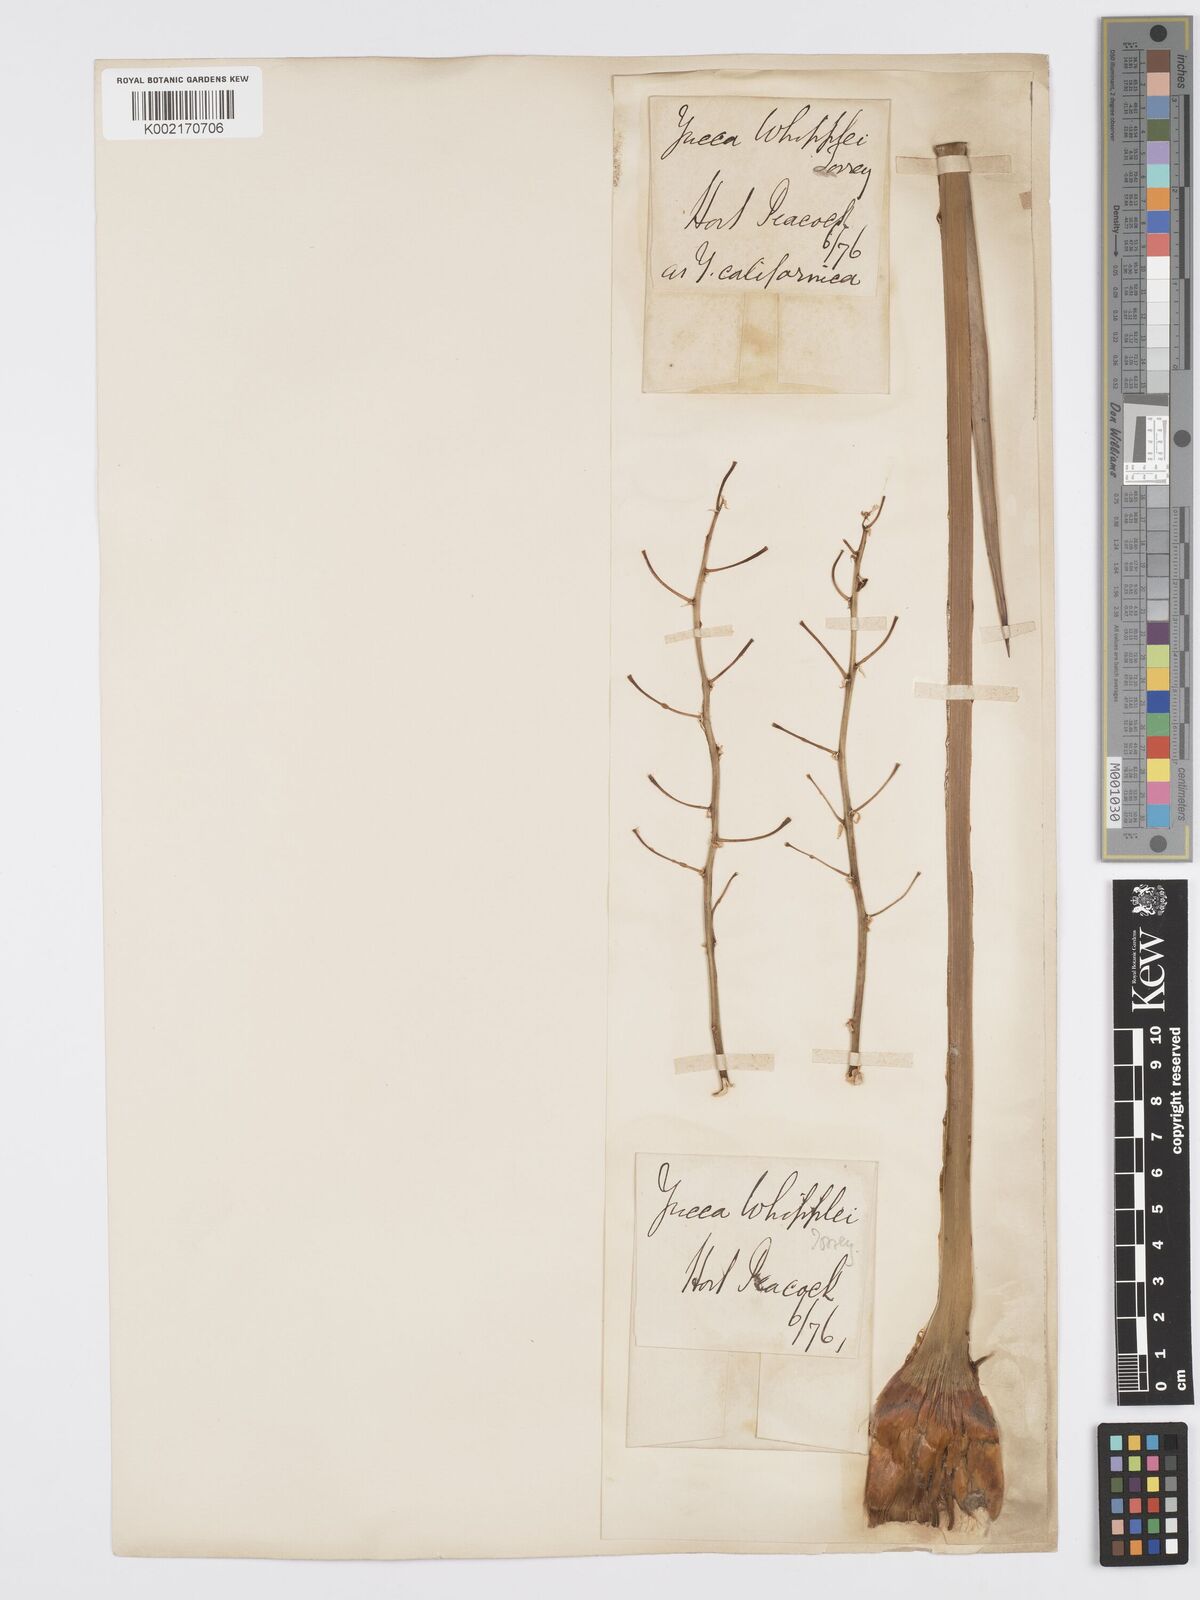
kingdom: Plantae
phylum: Tracheophyta
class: Liliopsida
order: Asparagales
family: Asparagaceae
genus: Hesperoyucca
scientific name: Hesperoyucca whipplei
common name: Our lord's-candle
